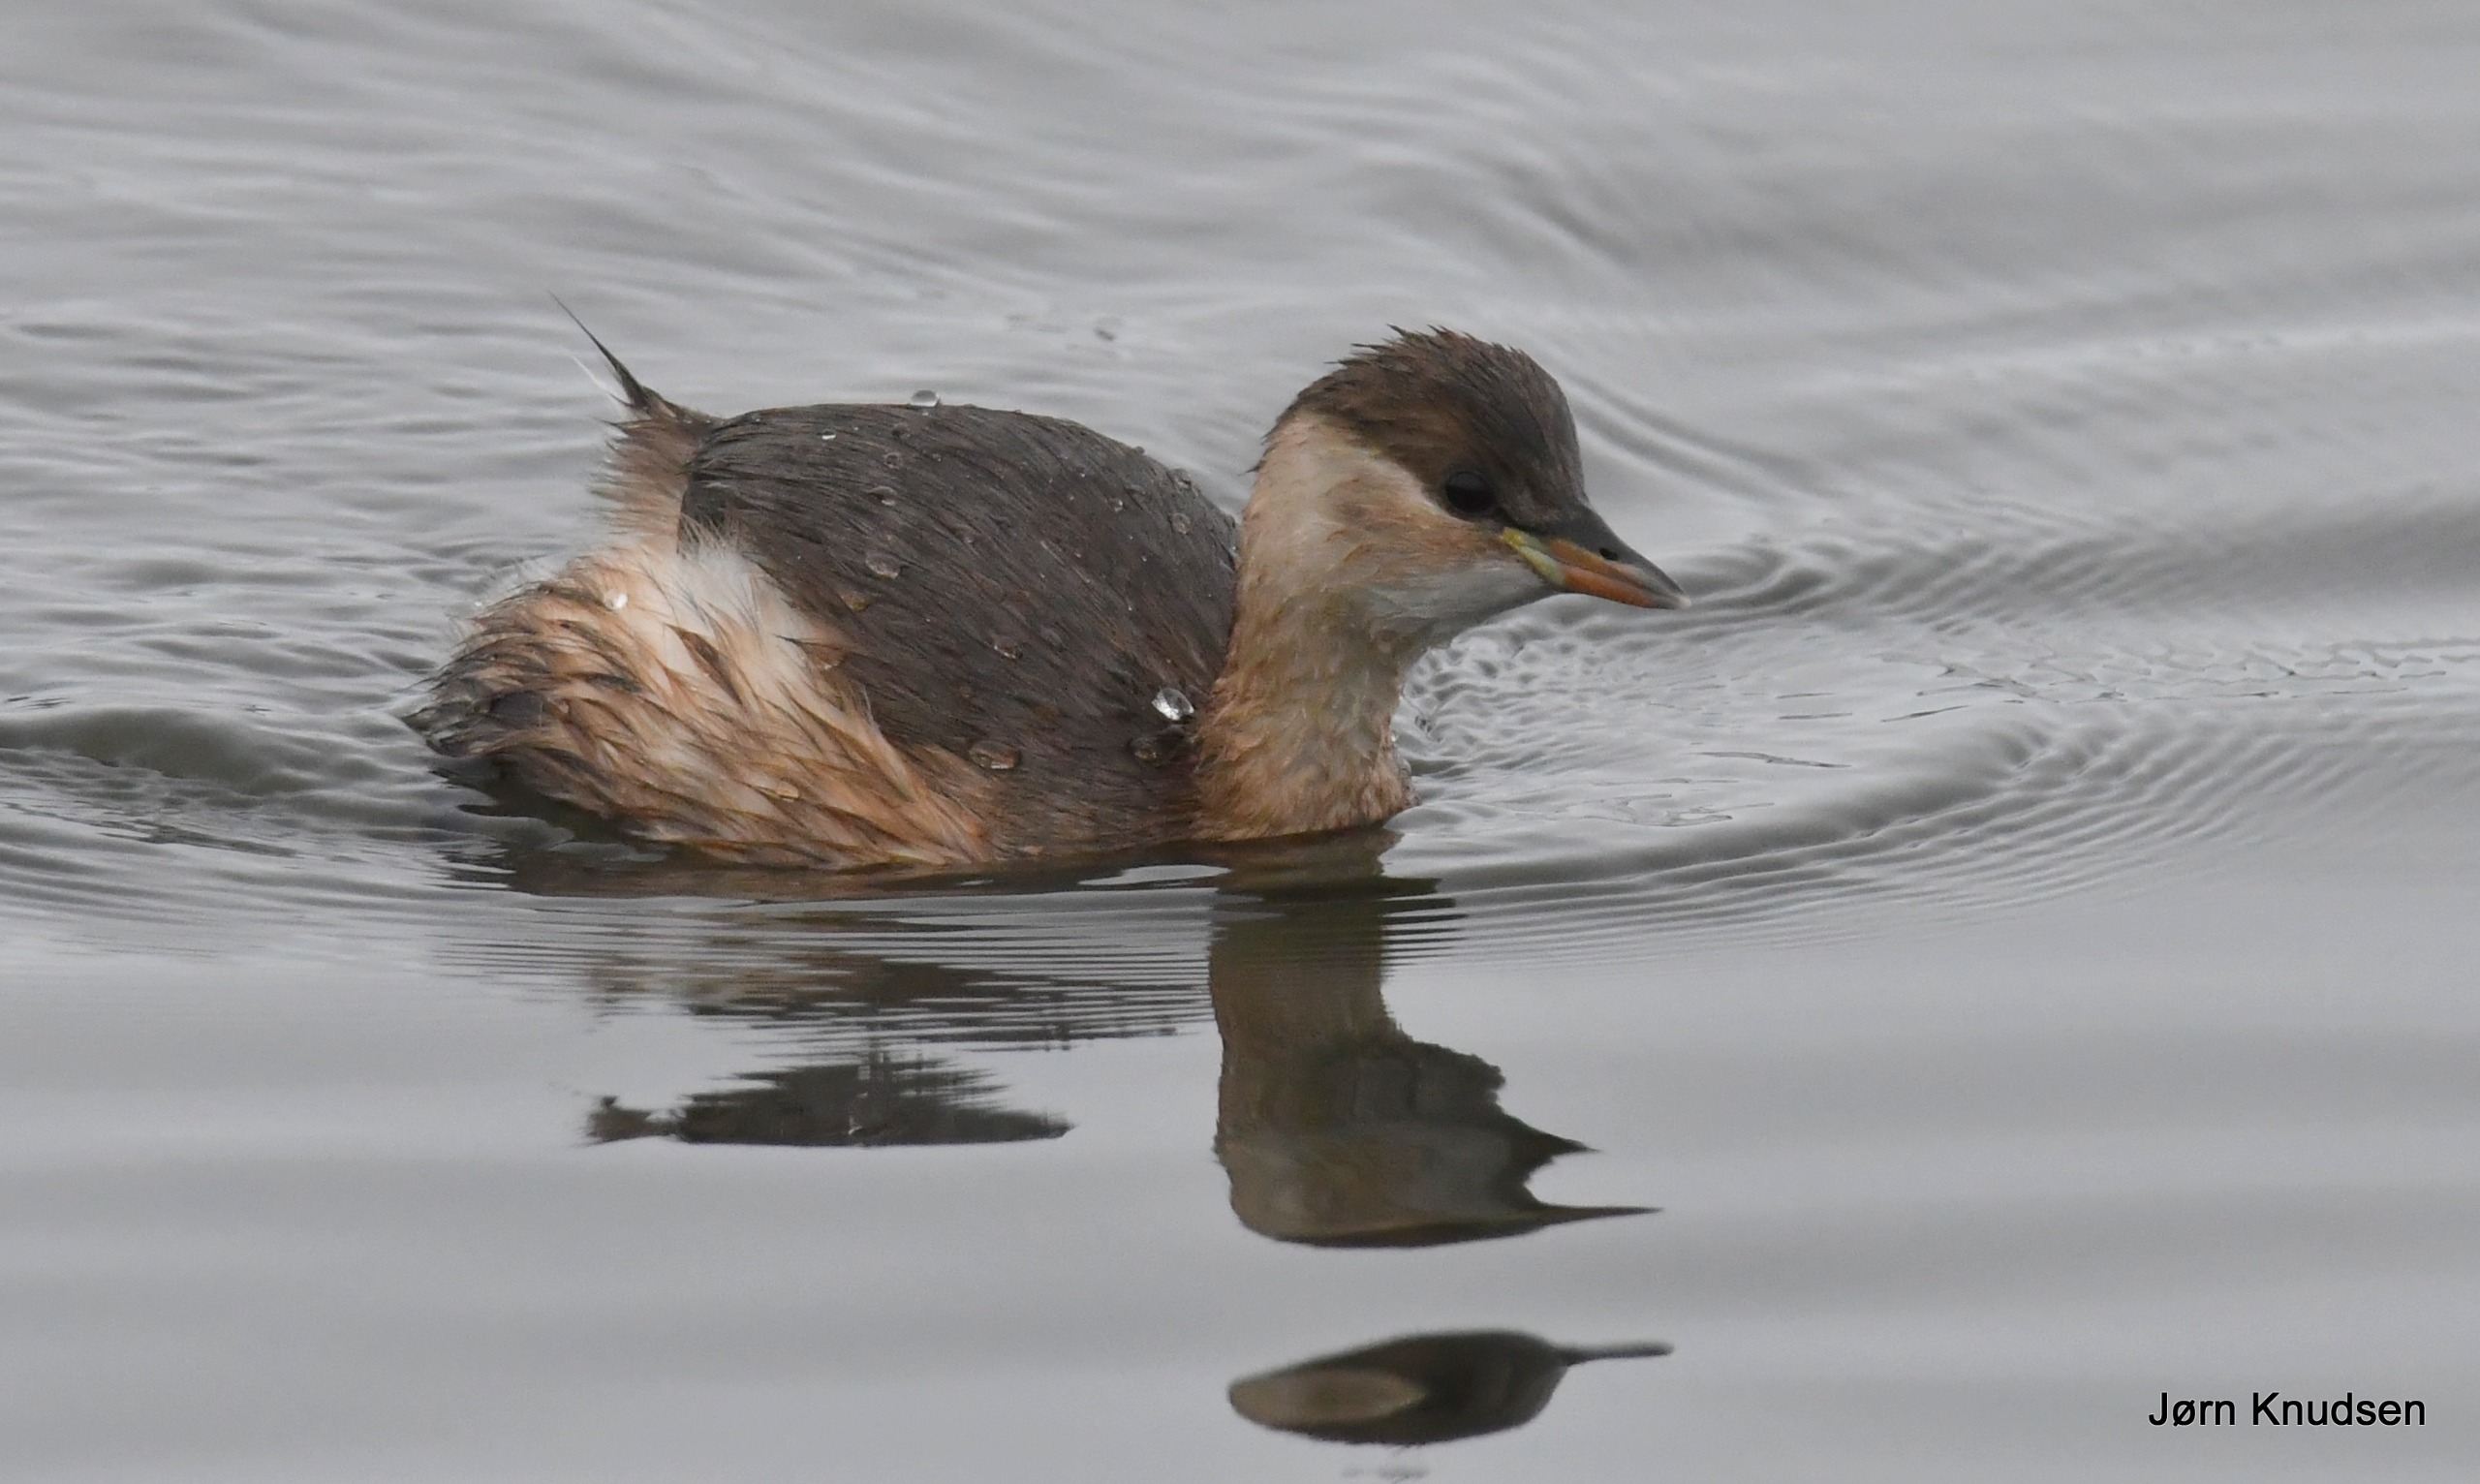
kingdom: Animalia
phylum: Chordata
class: Aves
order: Podicipediformes
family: Podicipedidae
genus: Tachybaptus
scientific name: Tachybaptus ruficollis
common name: Lille lappedykker
